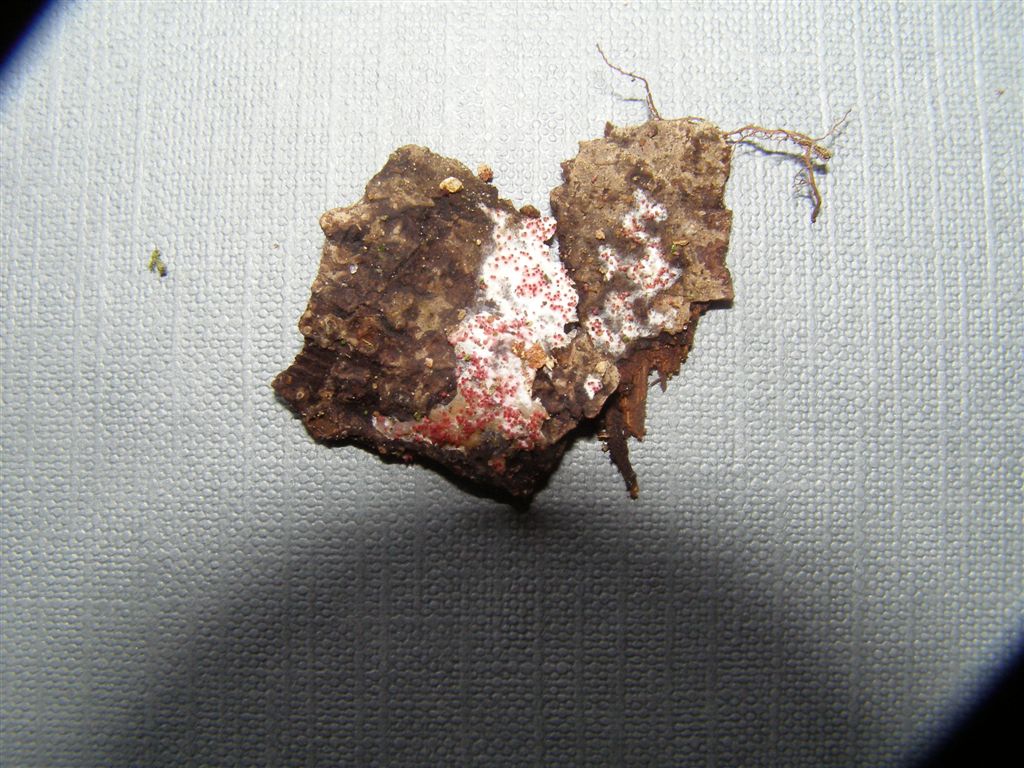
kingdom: Fungi
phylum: Ascomycota
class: Sordariomycetes
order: Hypocreales
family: Hypocreaceae
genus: Hypomyces
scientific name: Hypomyces rosellus
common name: rosa snylteskorpe
